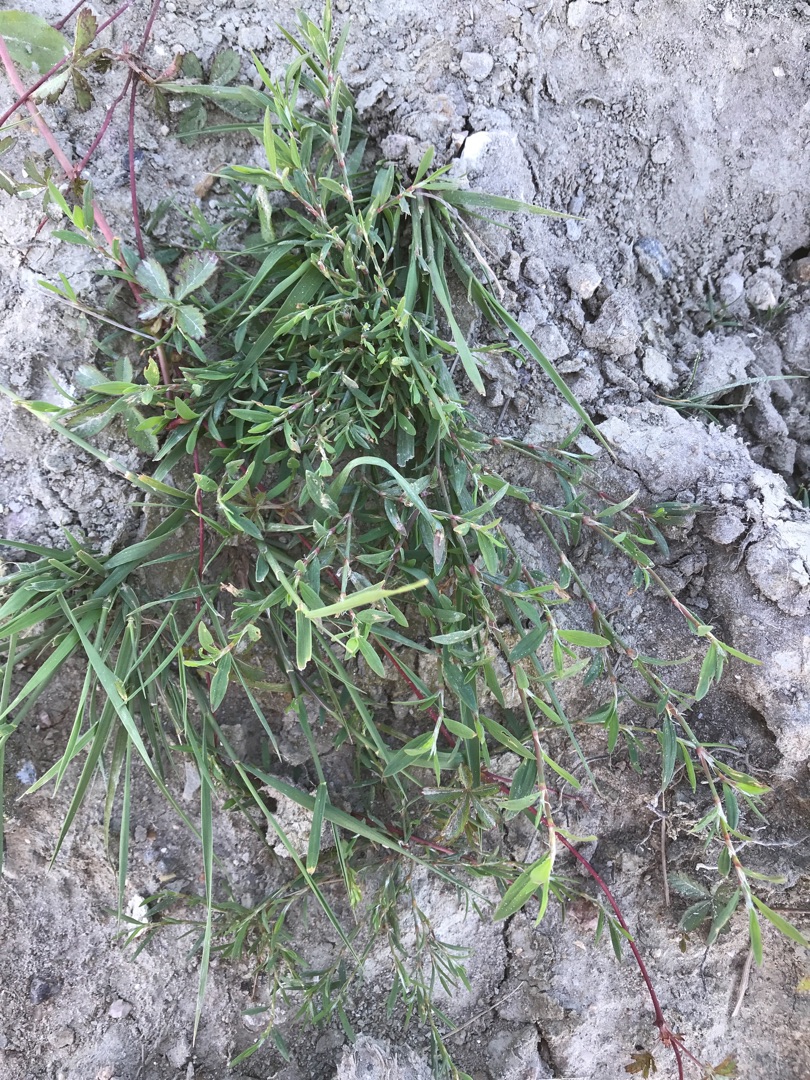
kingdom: Plantae
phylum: Tracheophyta
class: Magnoliopsida
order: Caryophyllales
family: Polygonaceae
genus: Polygonum
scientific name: Polygonum aviculare
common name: Vej-pileurt
